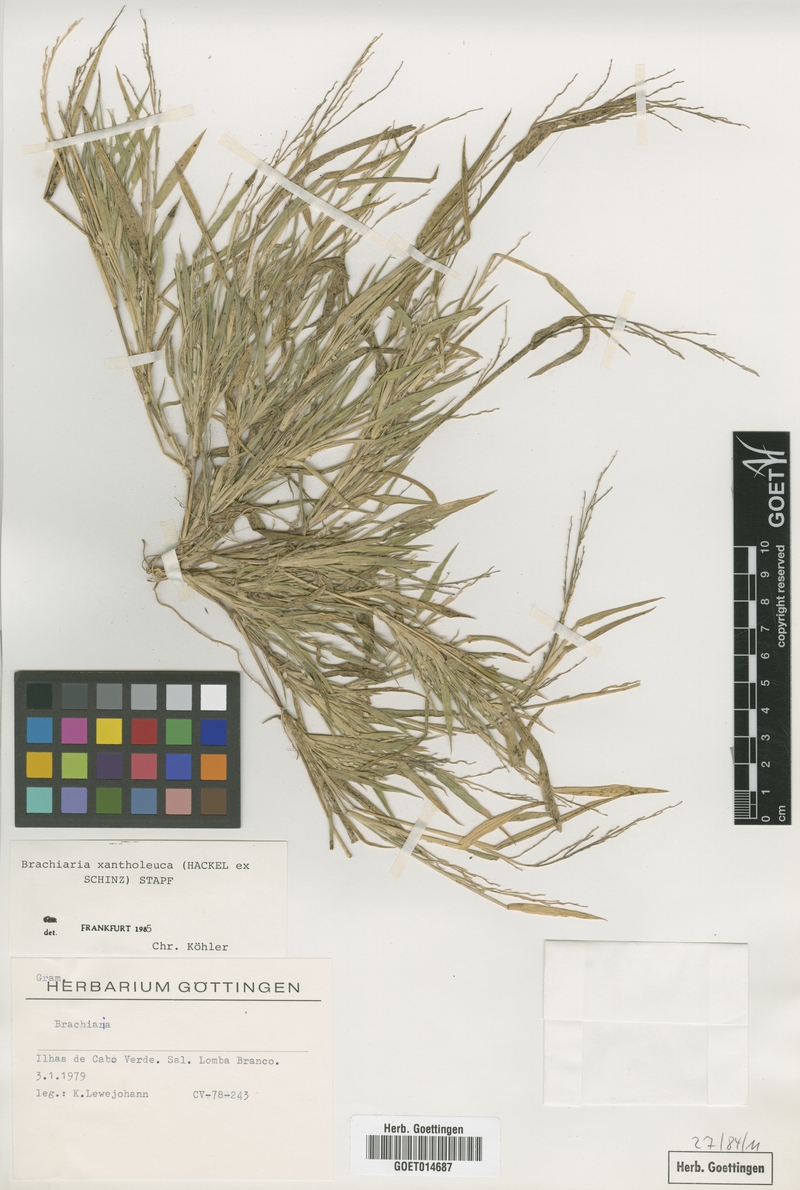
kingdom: Plantae
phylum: Tracheophyta
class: Liliopsida
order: Poales
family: Poaceae
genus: Urochloa
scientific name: Urochloa xantholeuca
